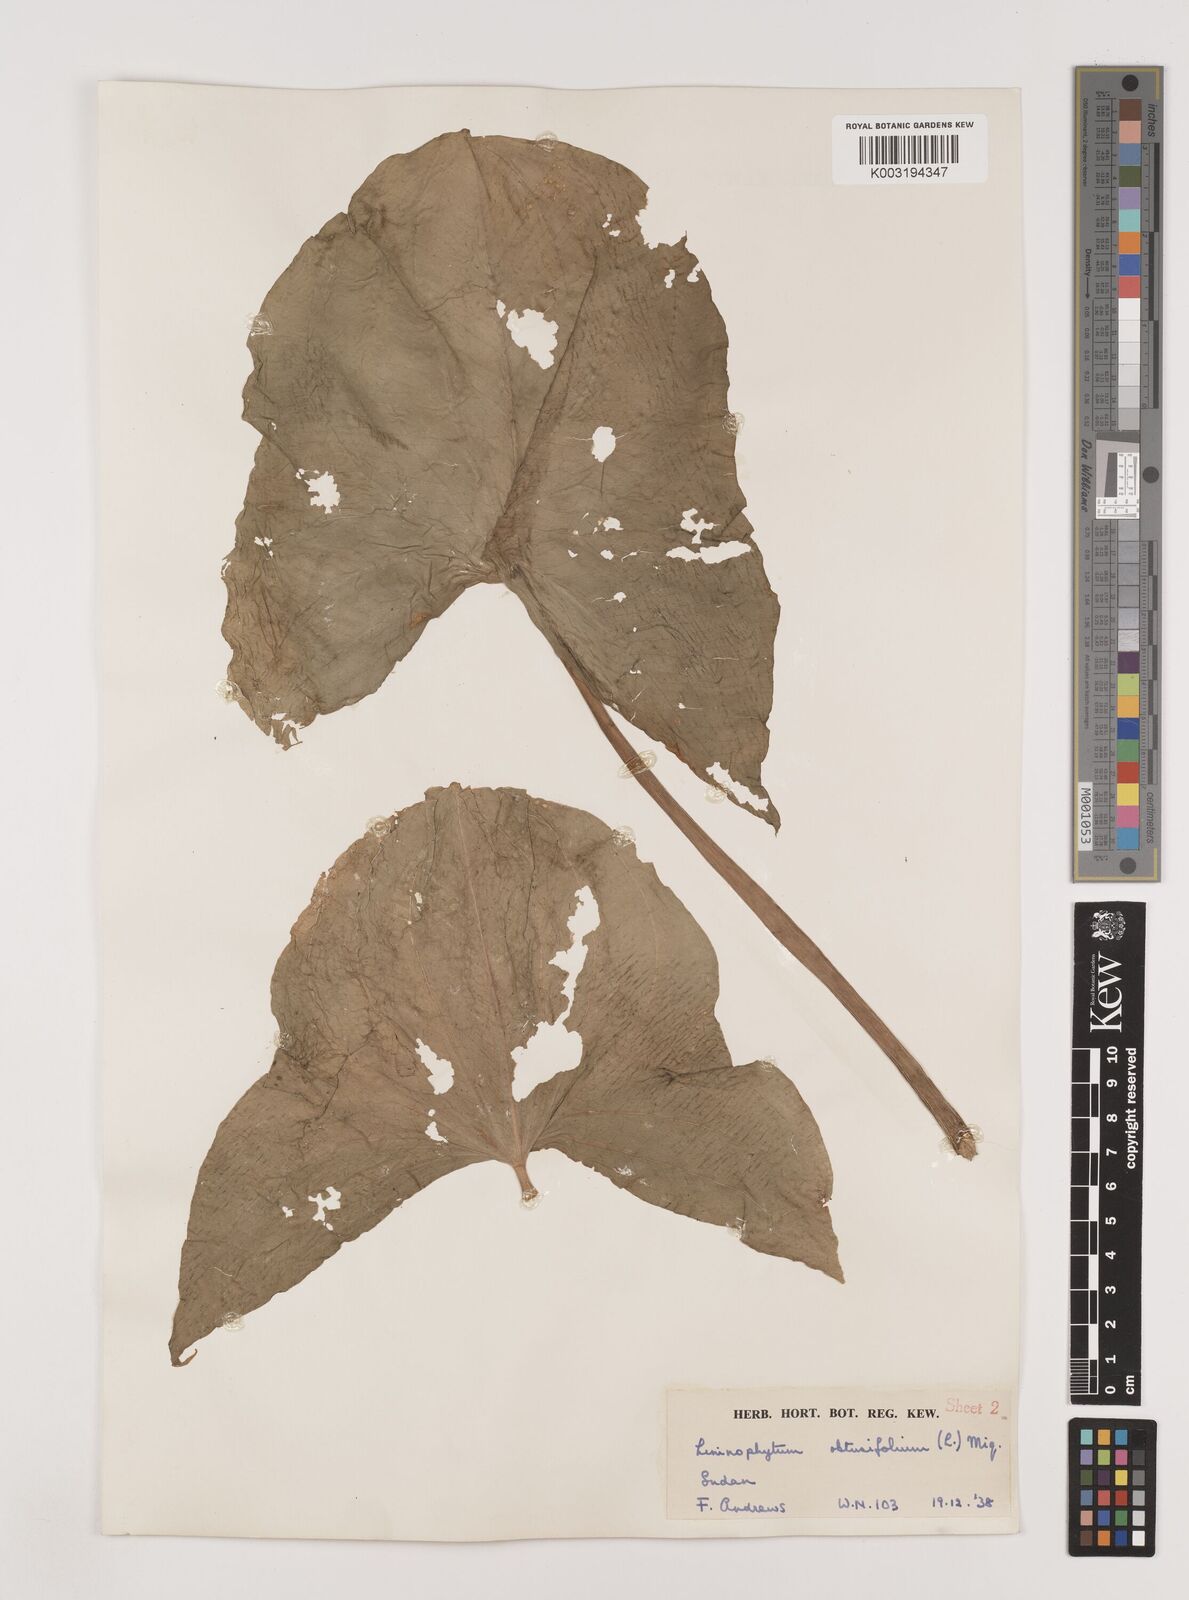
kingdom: Plantae
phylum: Tracheophyta
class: Liliopsida
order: Alismatales
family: Alismataceae
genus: Limnophyton
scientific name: Limnophyton obtusifolium
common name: Arrow head
